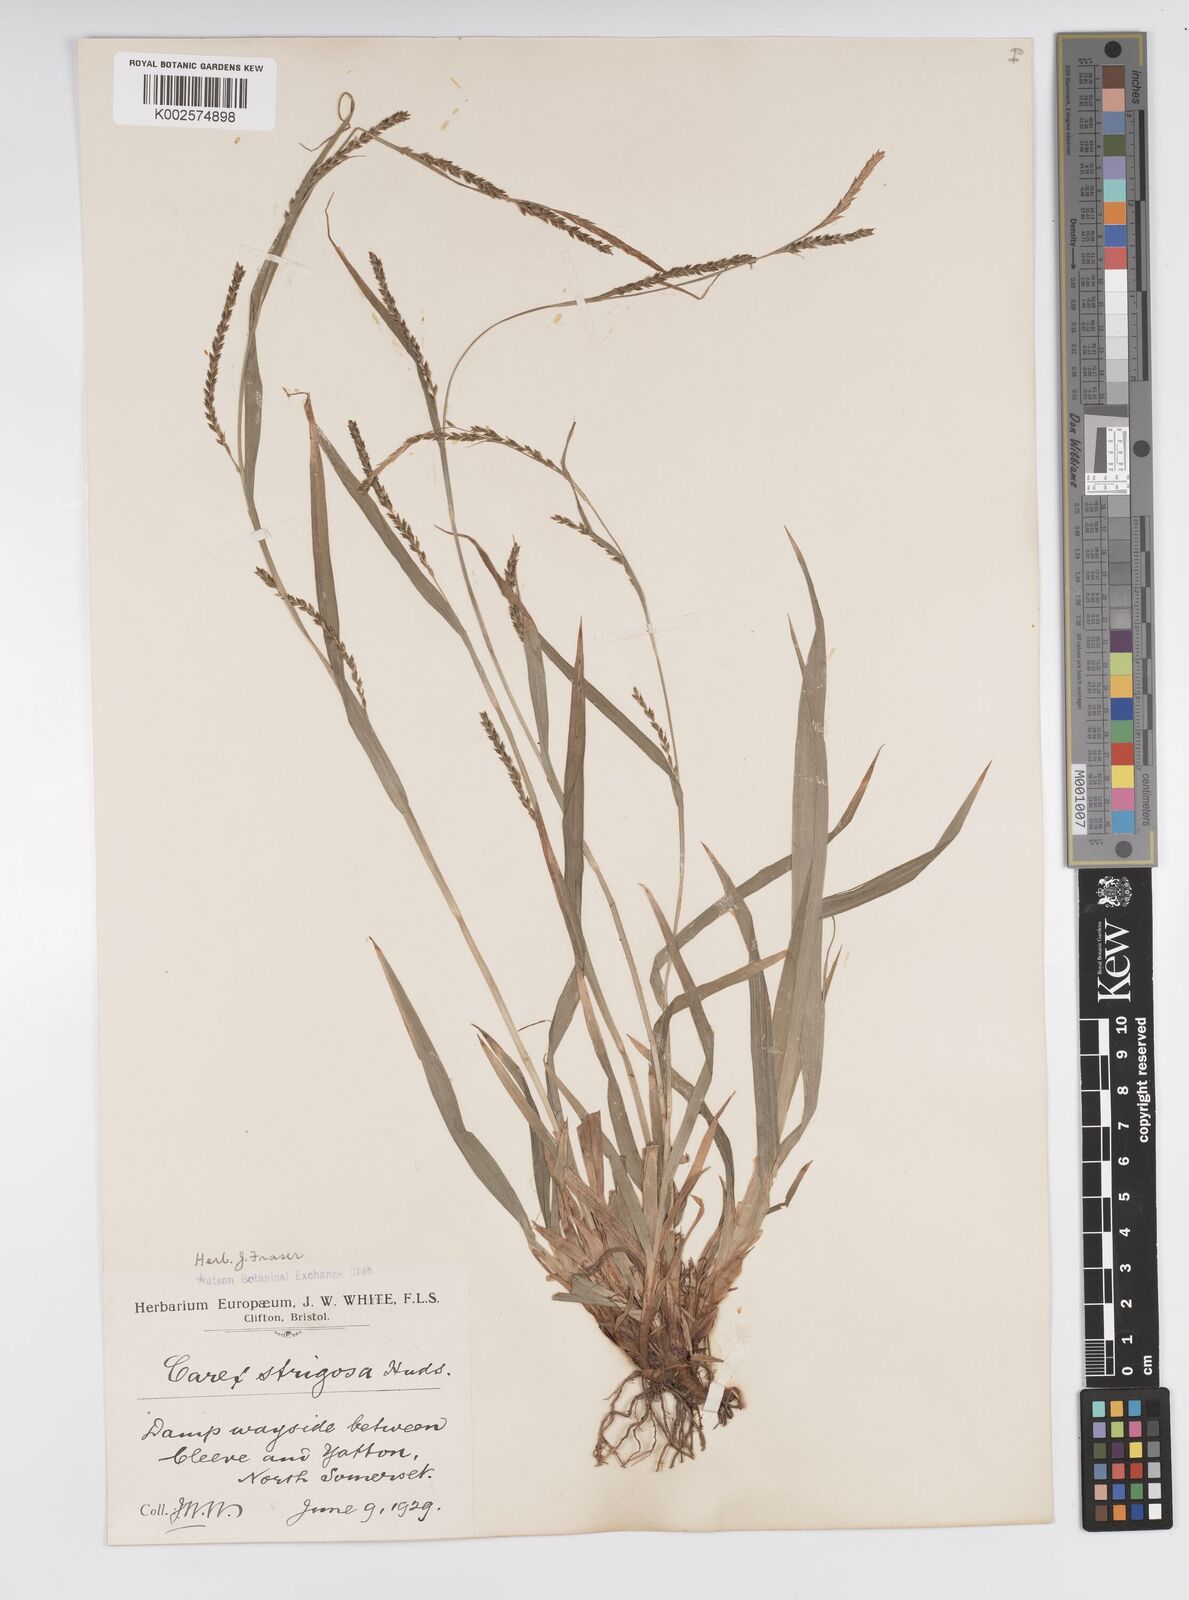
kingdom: Plantae
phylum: Tracheophyta
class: Liliopsida
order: Poales
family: Cyperaceae
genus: Carex
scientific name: Carex strigosa
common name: Thin-spiked wood-sedge
